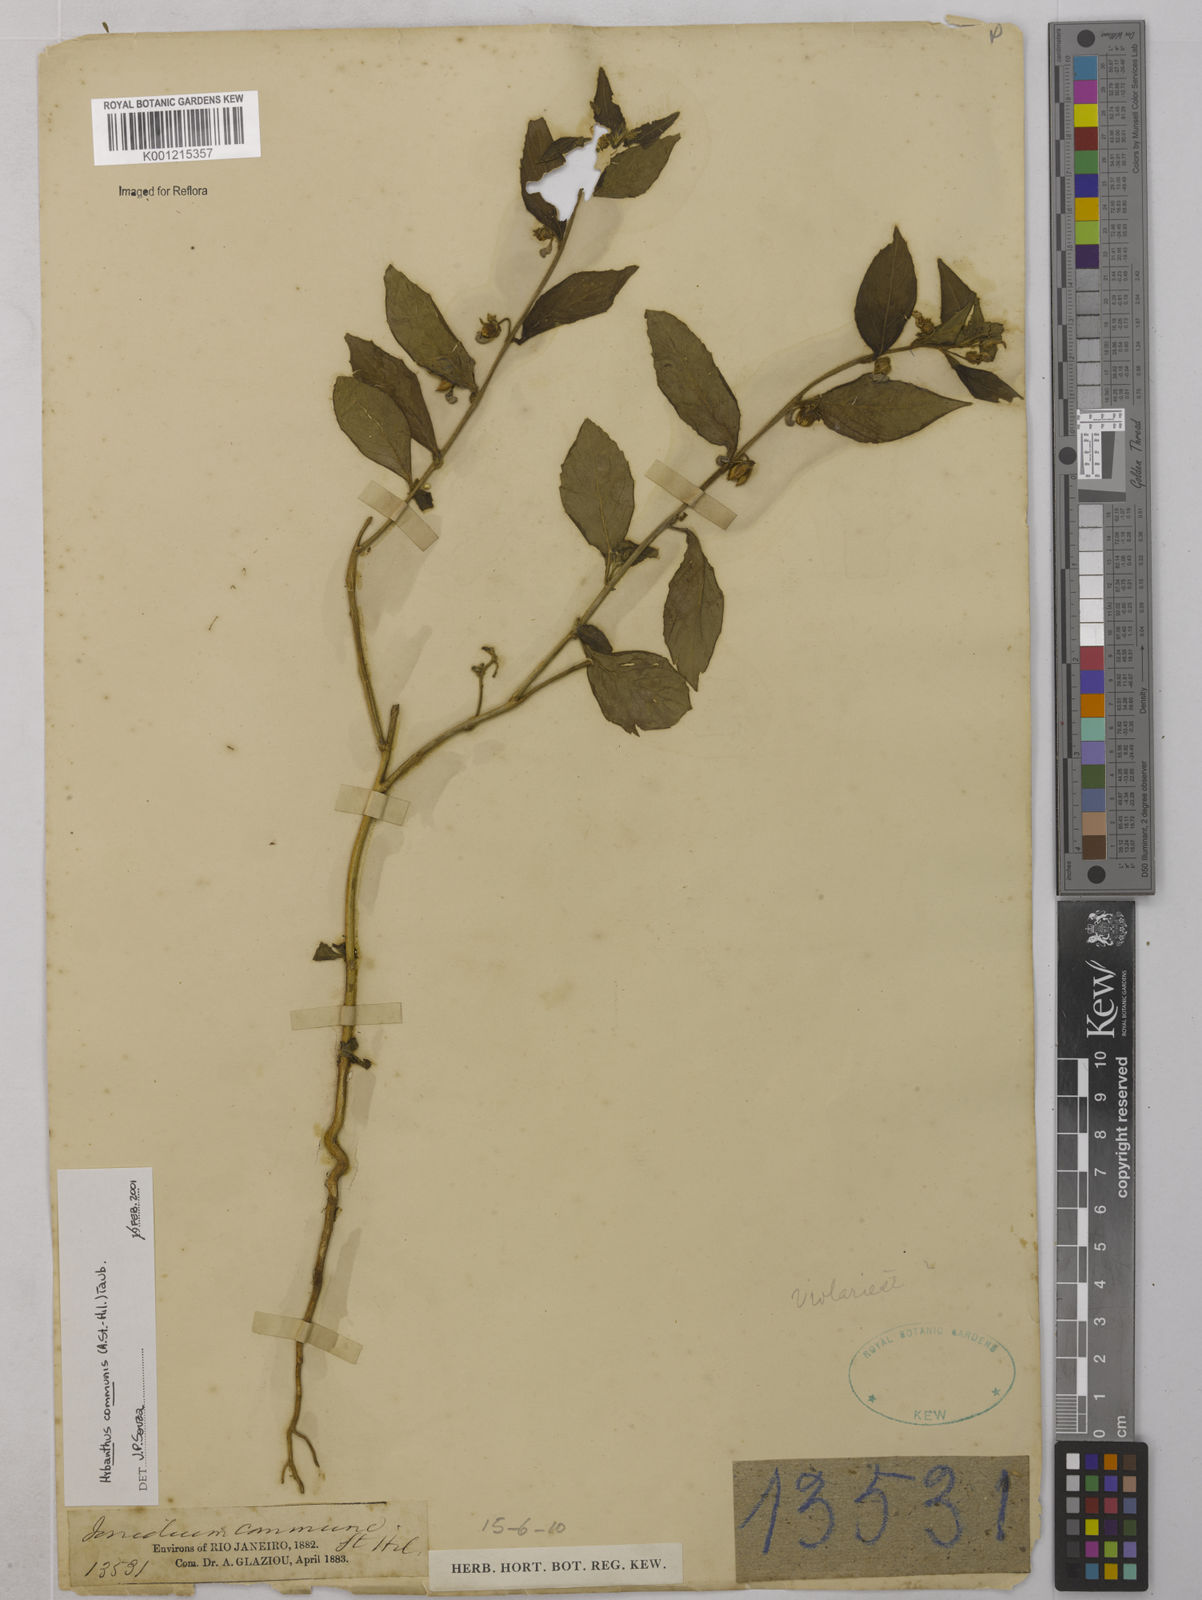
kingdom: Plantae
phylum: Tracheophyta
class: Magnoliopsida
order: Malpighiales
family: Violaceae
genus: Pombalia
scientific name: Pombalia communis
